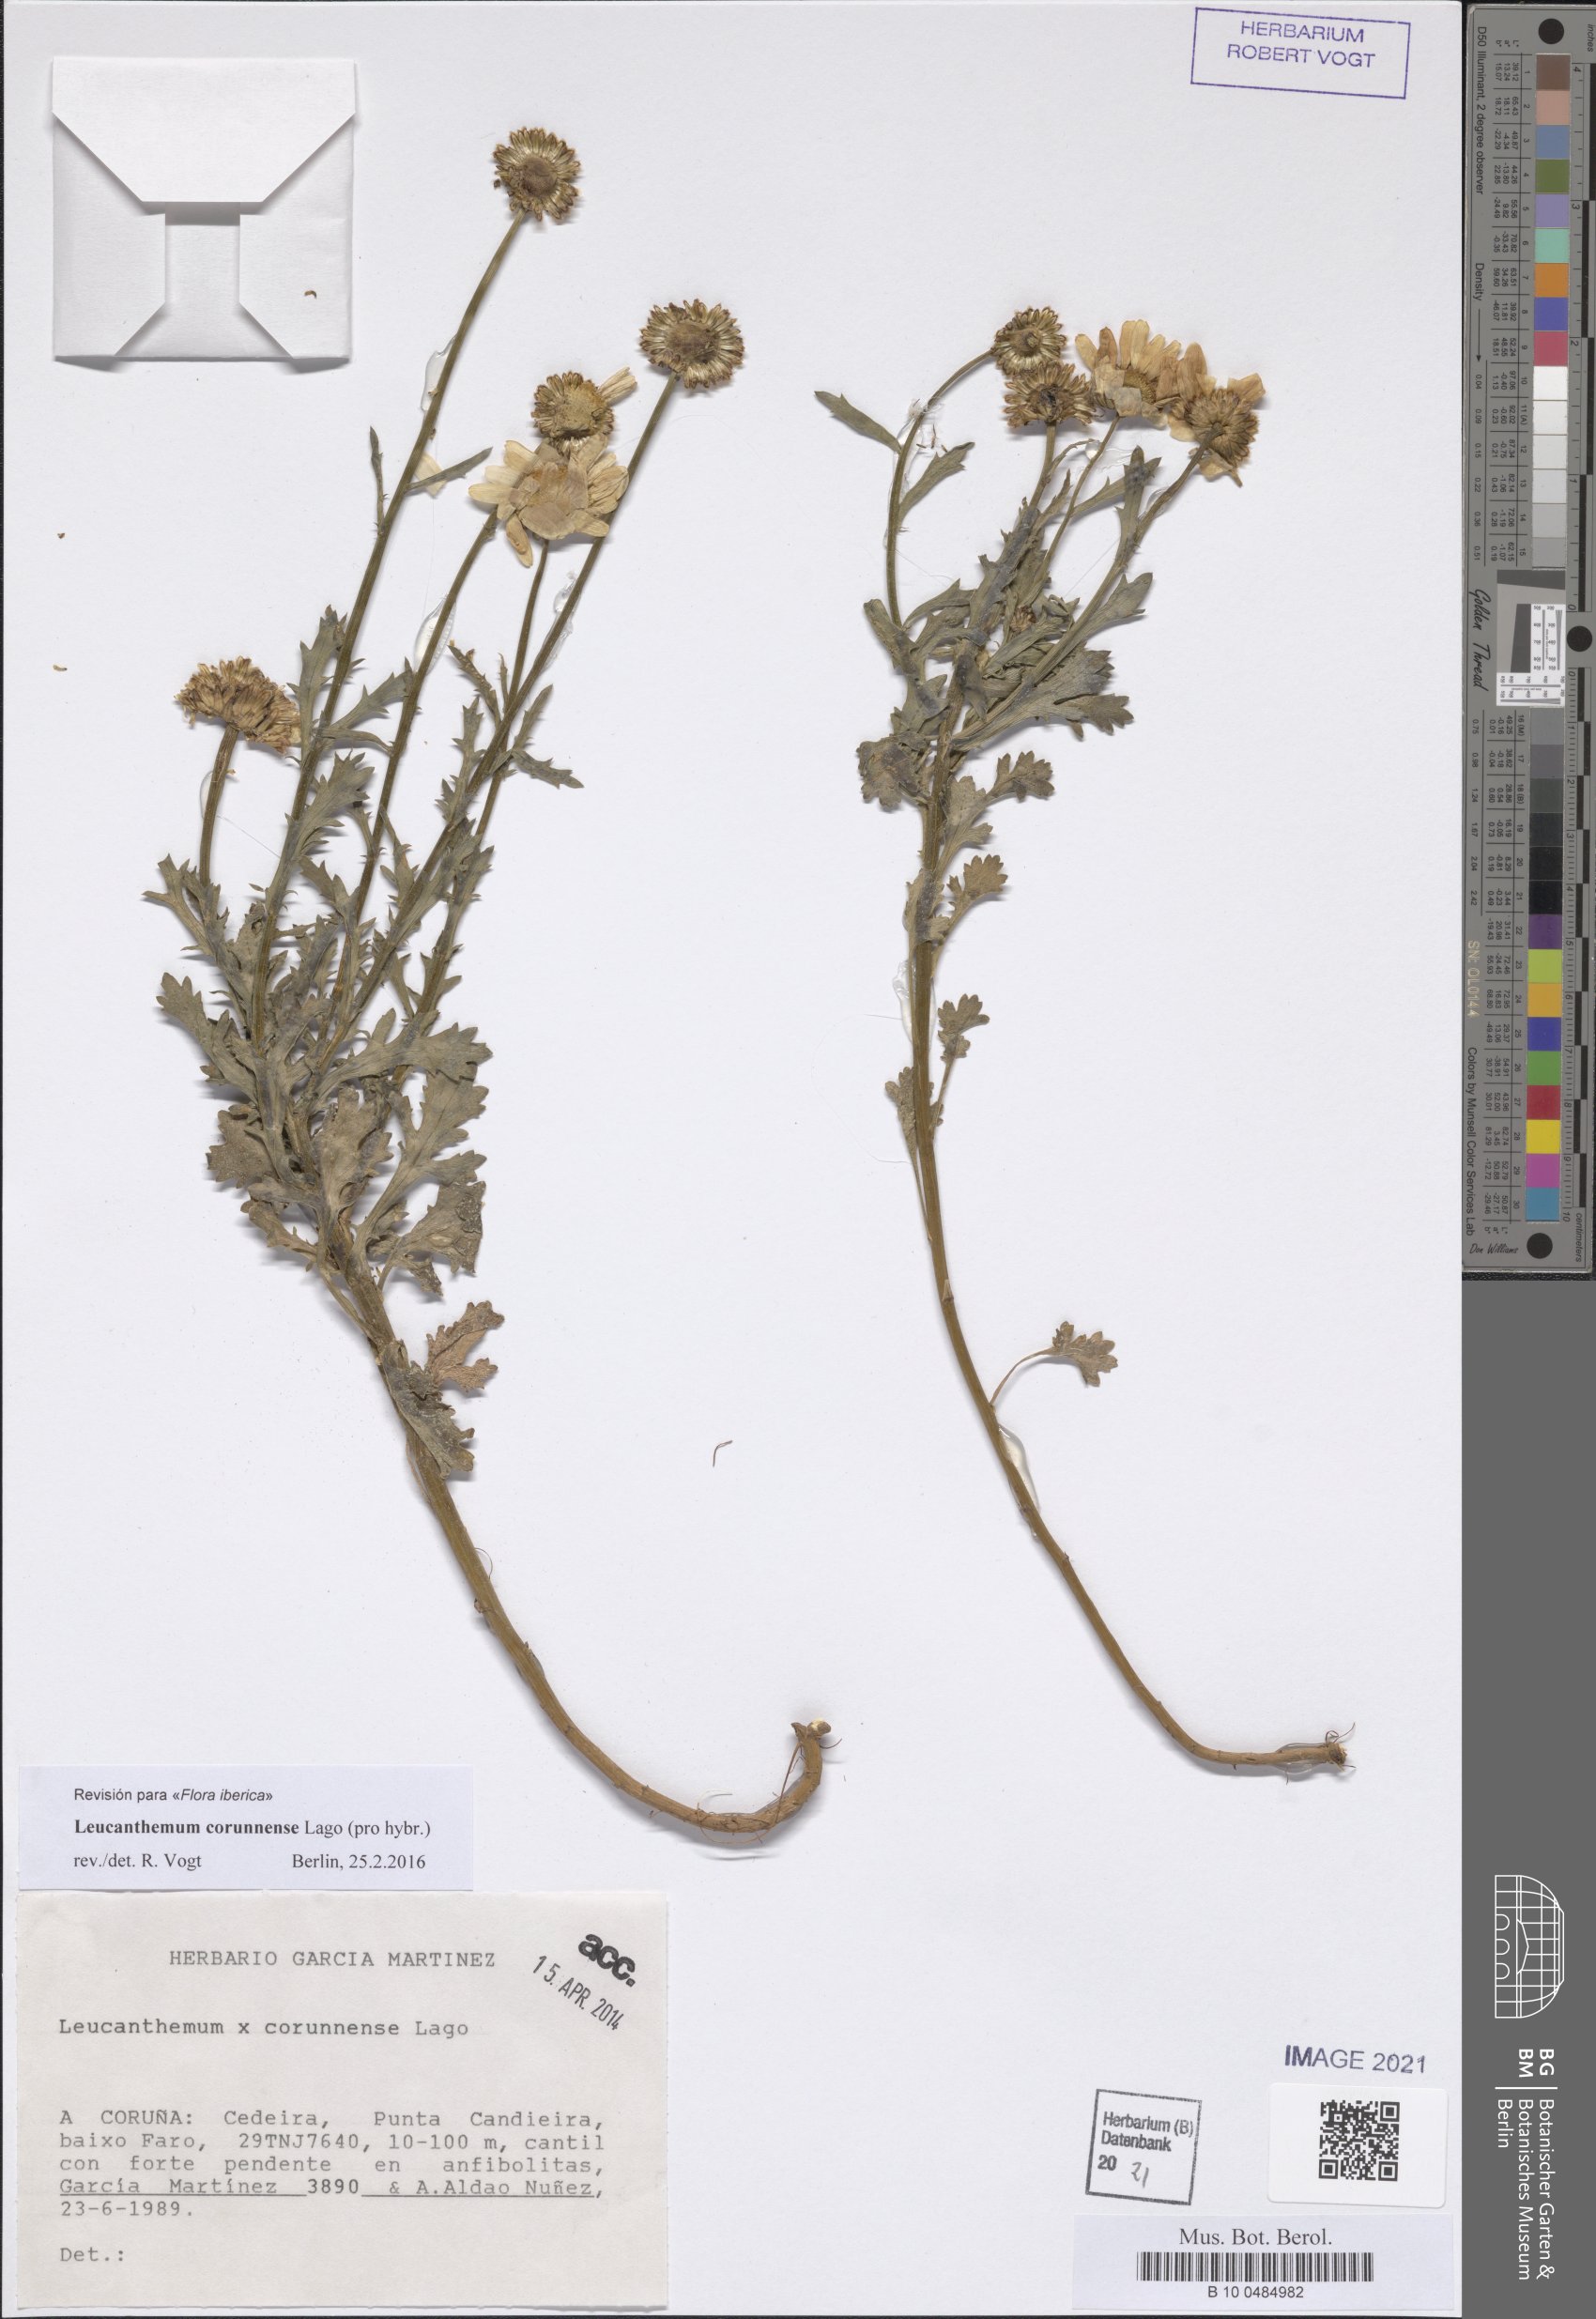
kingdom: Plantae
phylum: Tracheophyta
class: Magnoliopsida
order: Asterales
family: Asteraceae
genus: Leucanthemum
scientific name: Leucanthemum corunnense
